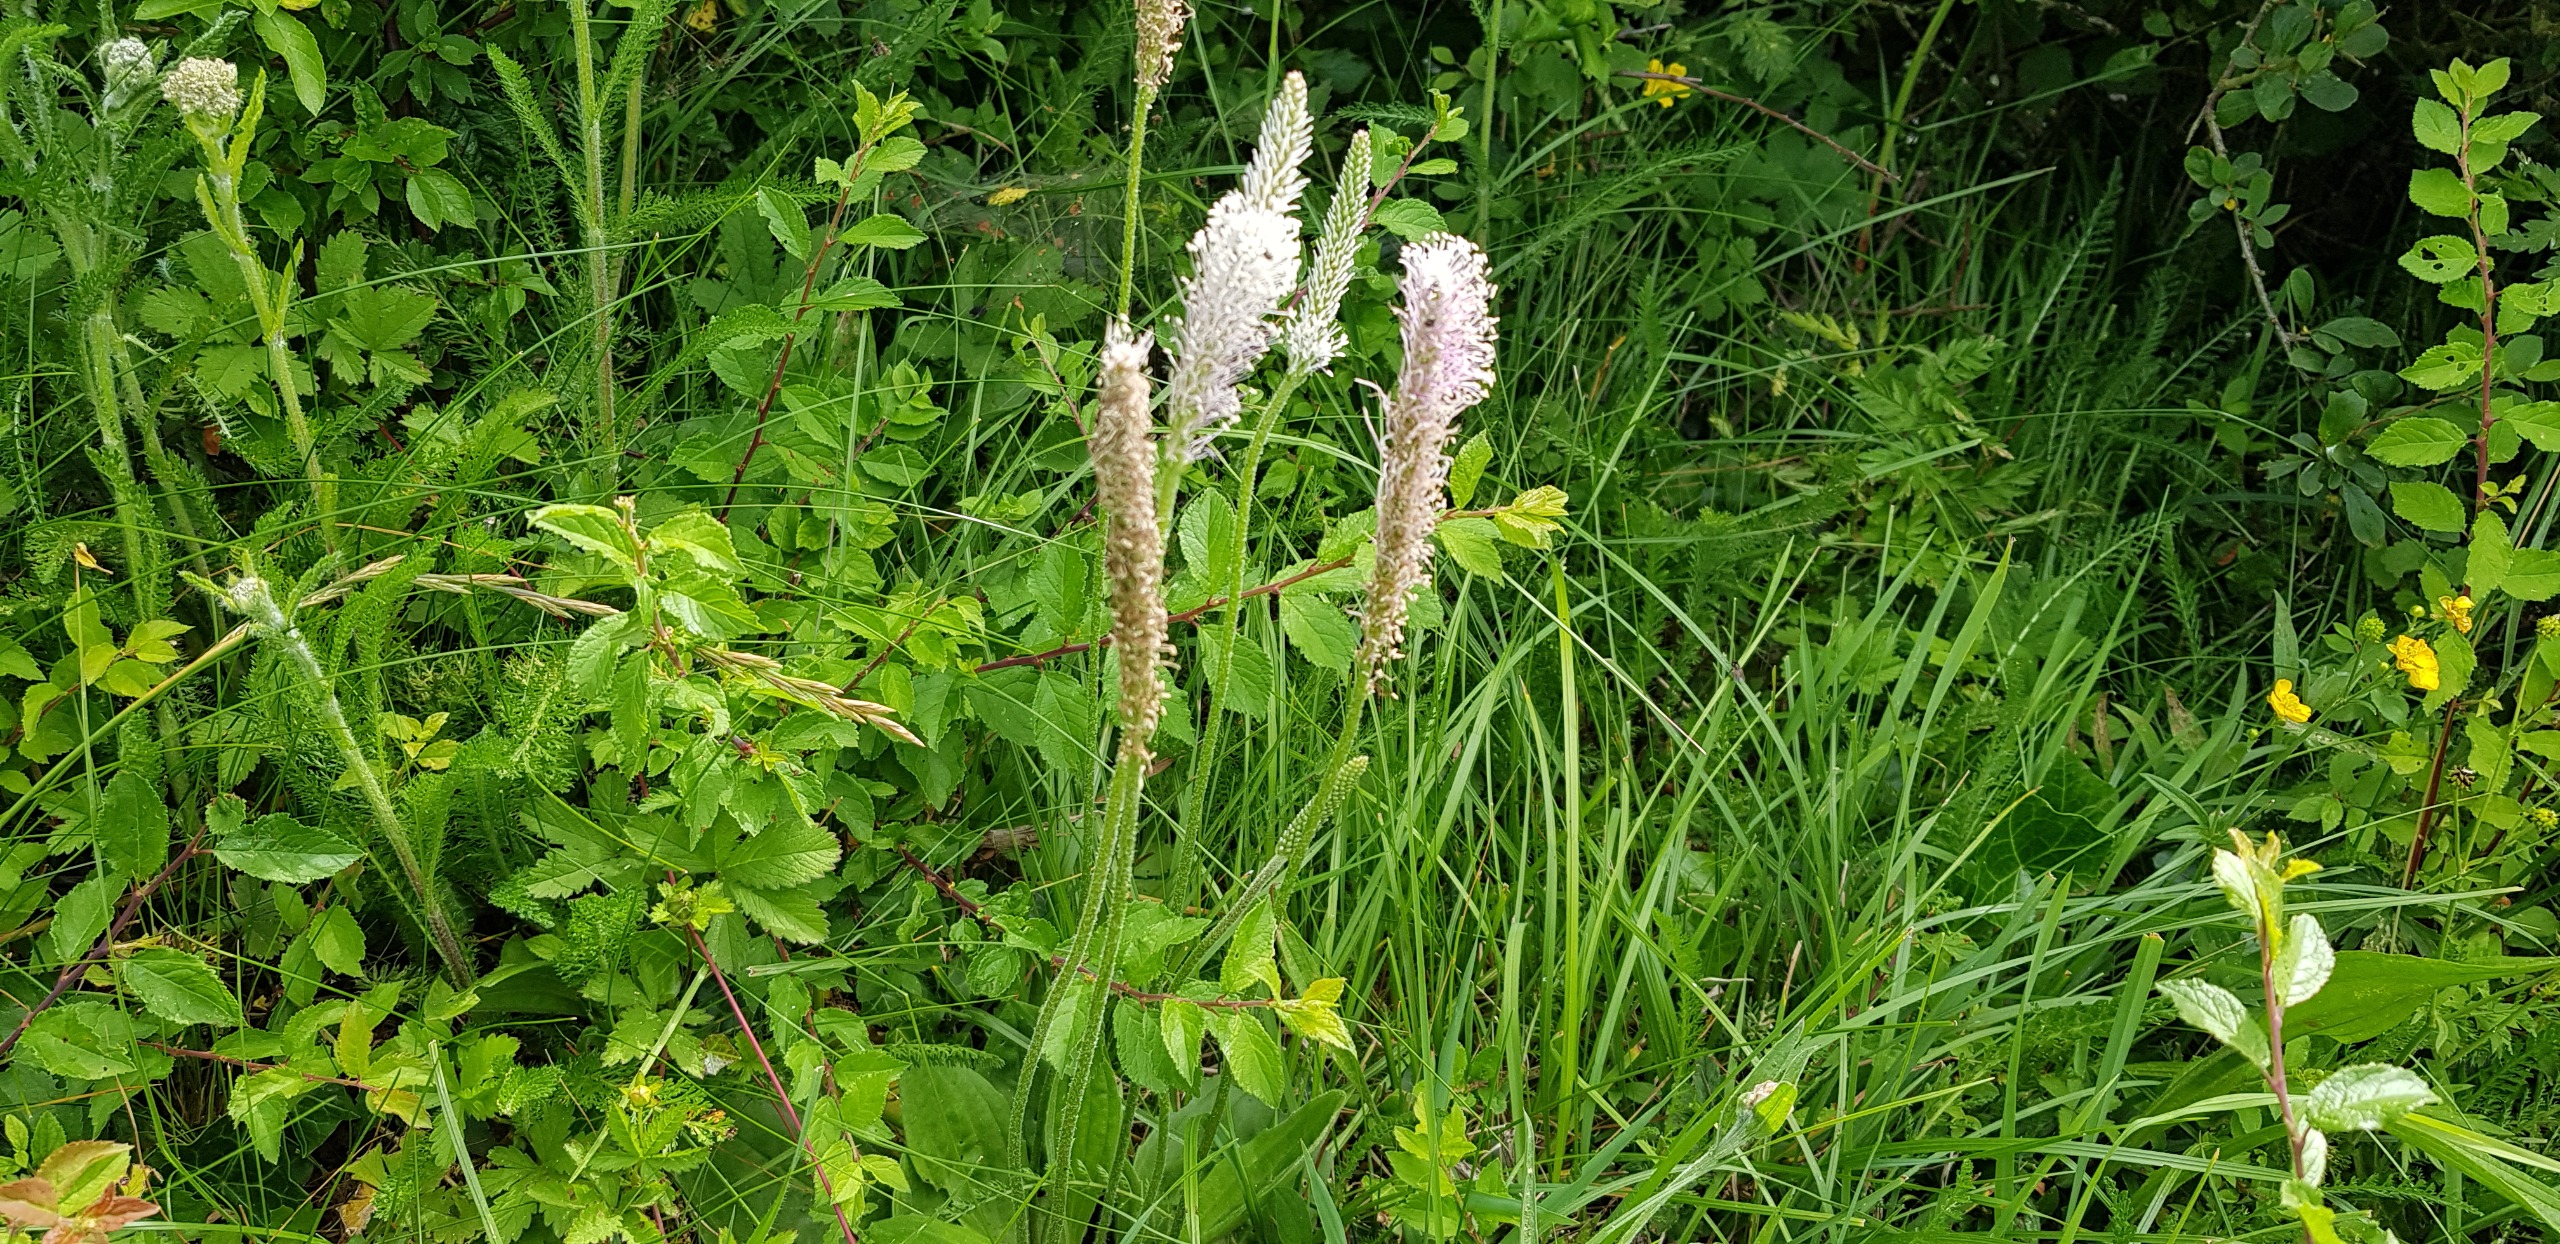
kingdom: Plantae
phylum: Tracheophyta
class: Magnoliopsida
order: Lamiales
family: Plantaginaceae
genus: Plantago
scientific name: Plantago media
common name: Dunet vejbred
